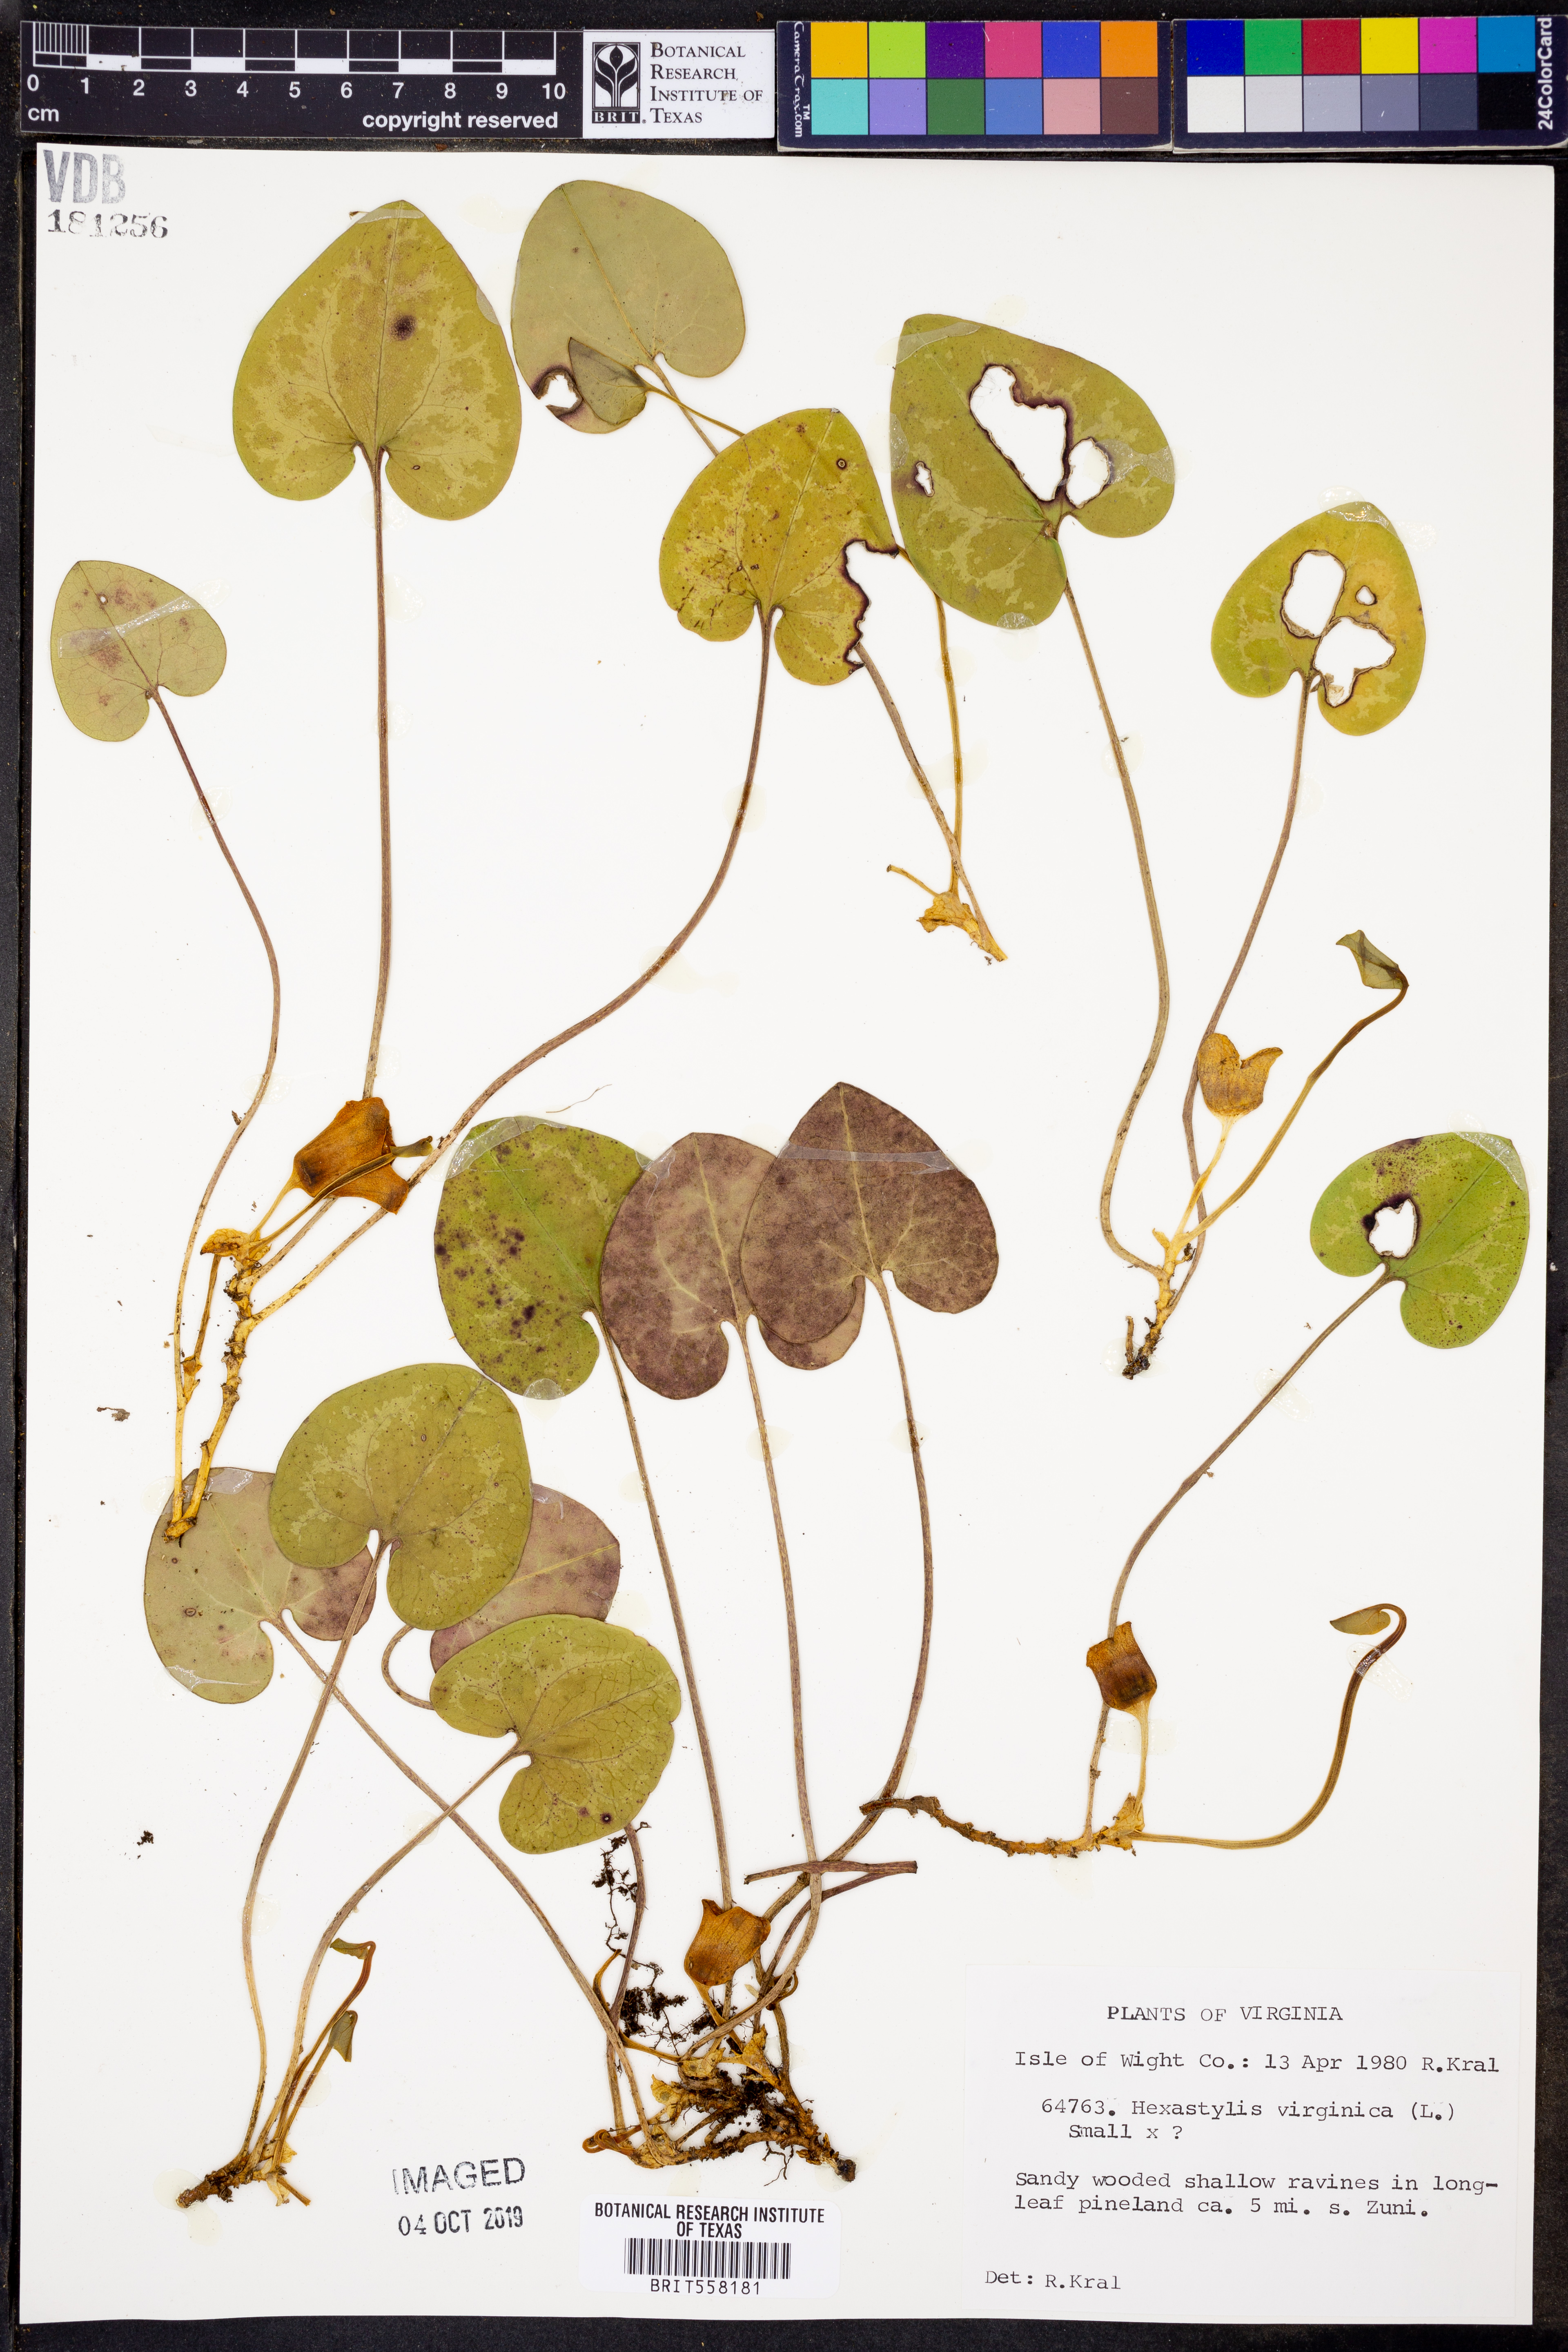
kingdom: Plantae
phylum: Tracheophyta
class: Magnoliopsida
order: Piperales
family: Aristolochiaceae
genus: Hexastylis
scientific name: Hexastylis virginica
